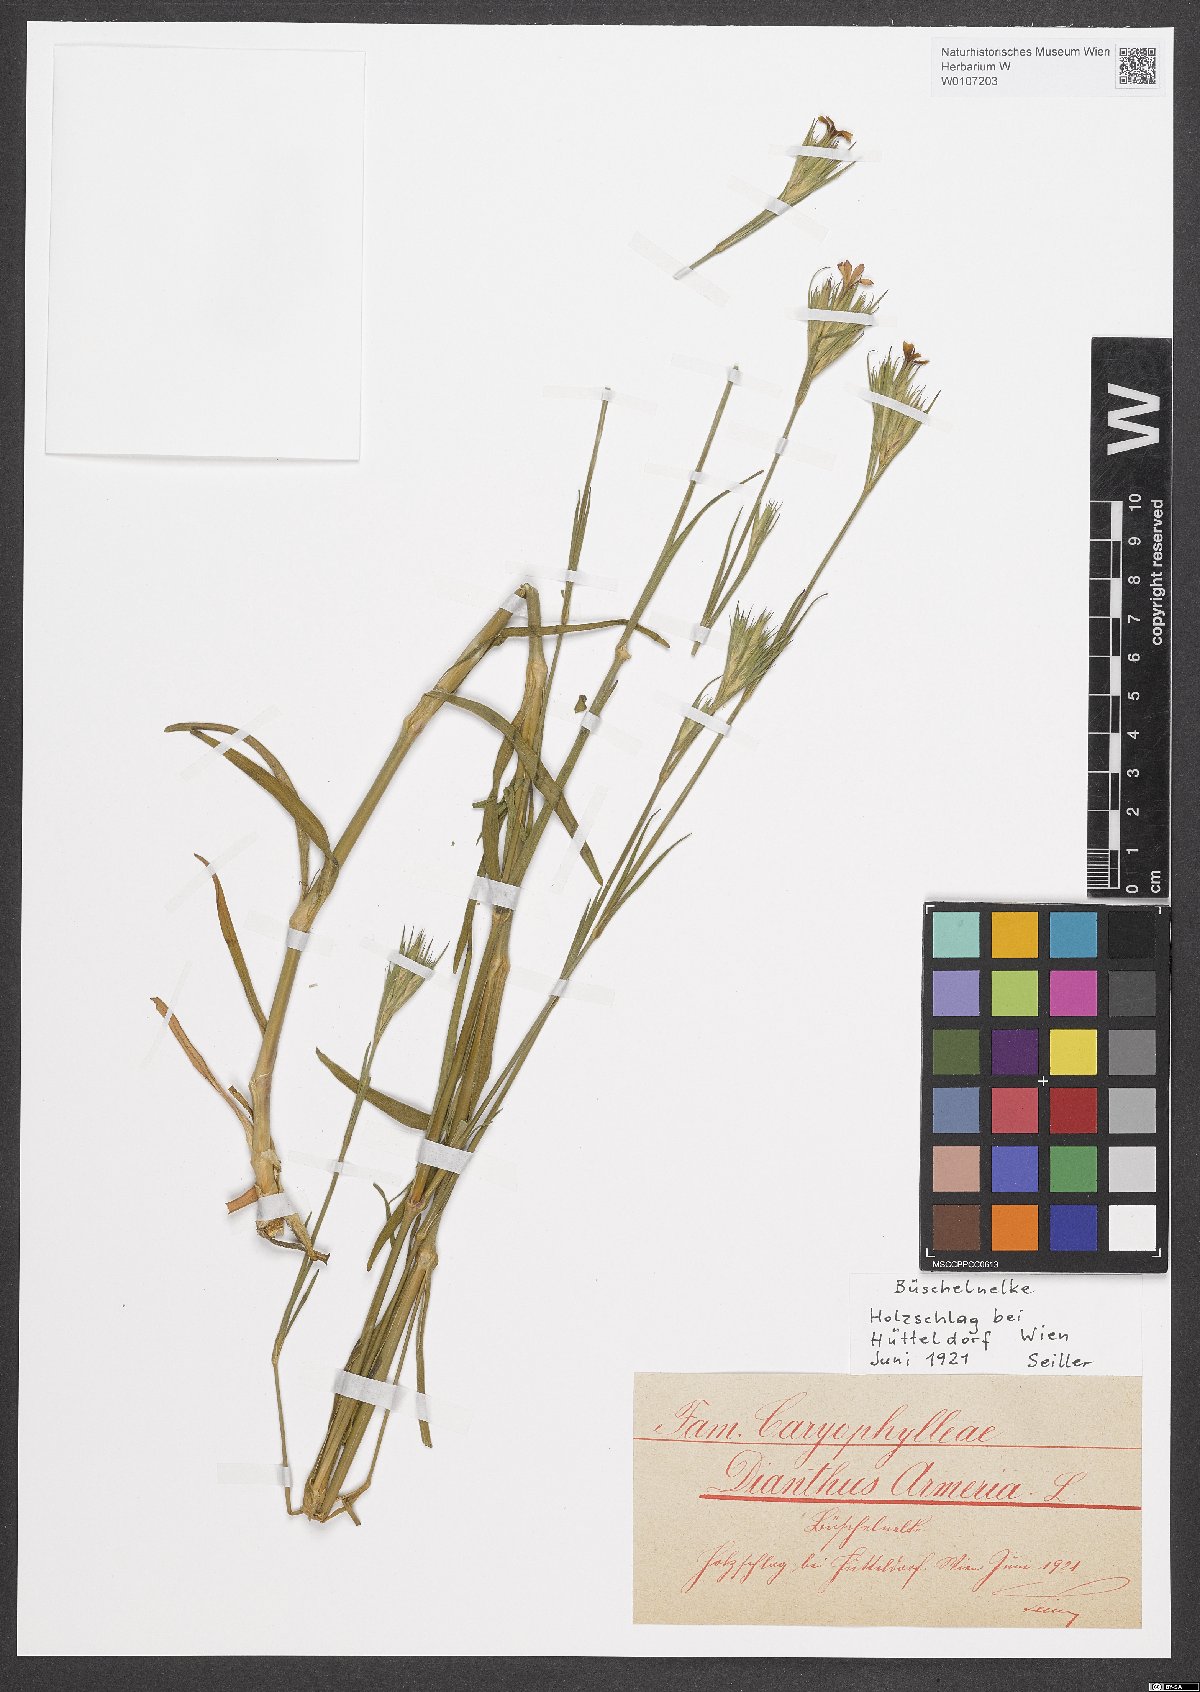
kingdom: Plantae
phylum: Tracheophyta
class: Magnoliopsida
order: Caryophyllales
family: Caryophyllaceae
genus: Dianthus
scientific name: Dianthus armeria
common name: Deptford pink
